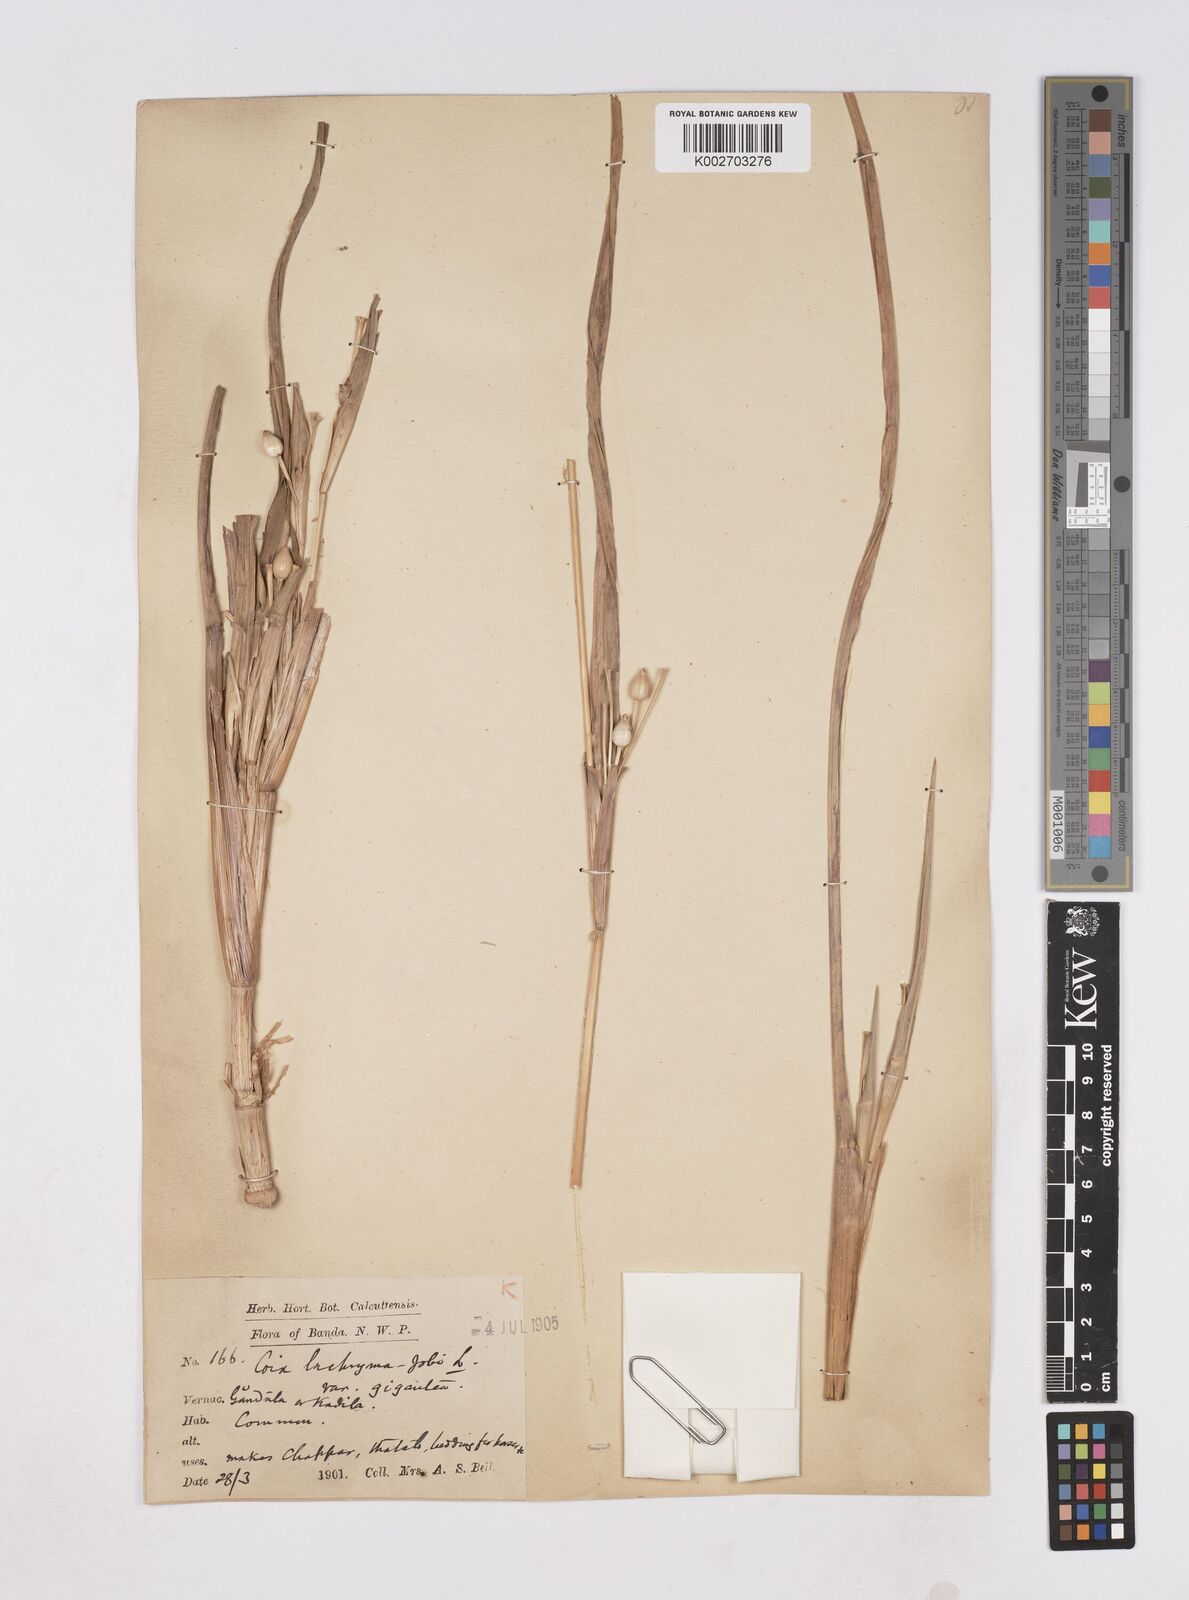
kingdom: Plantae
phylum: Tracheophyta
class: Liliopsida
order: Poales
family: Poaceae
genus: Coix
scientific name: Coix aquatica
